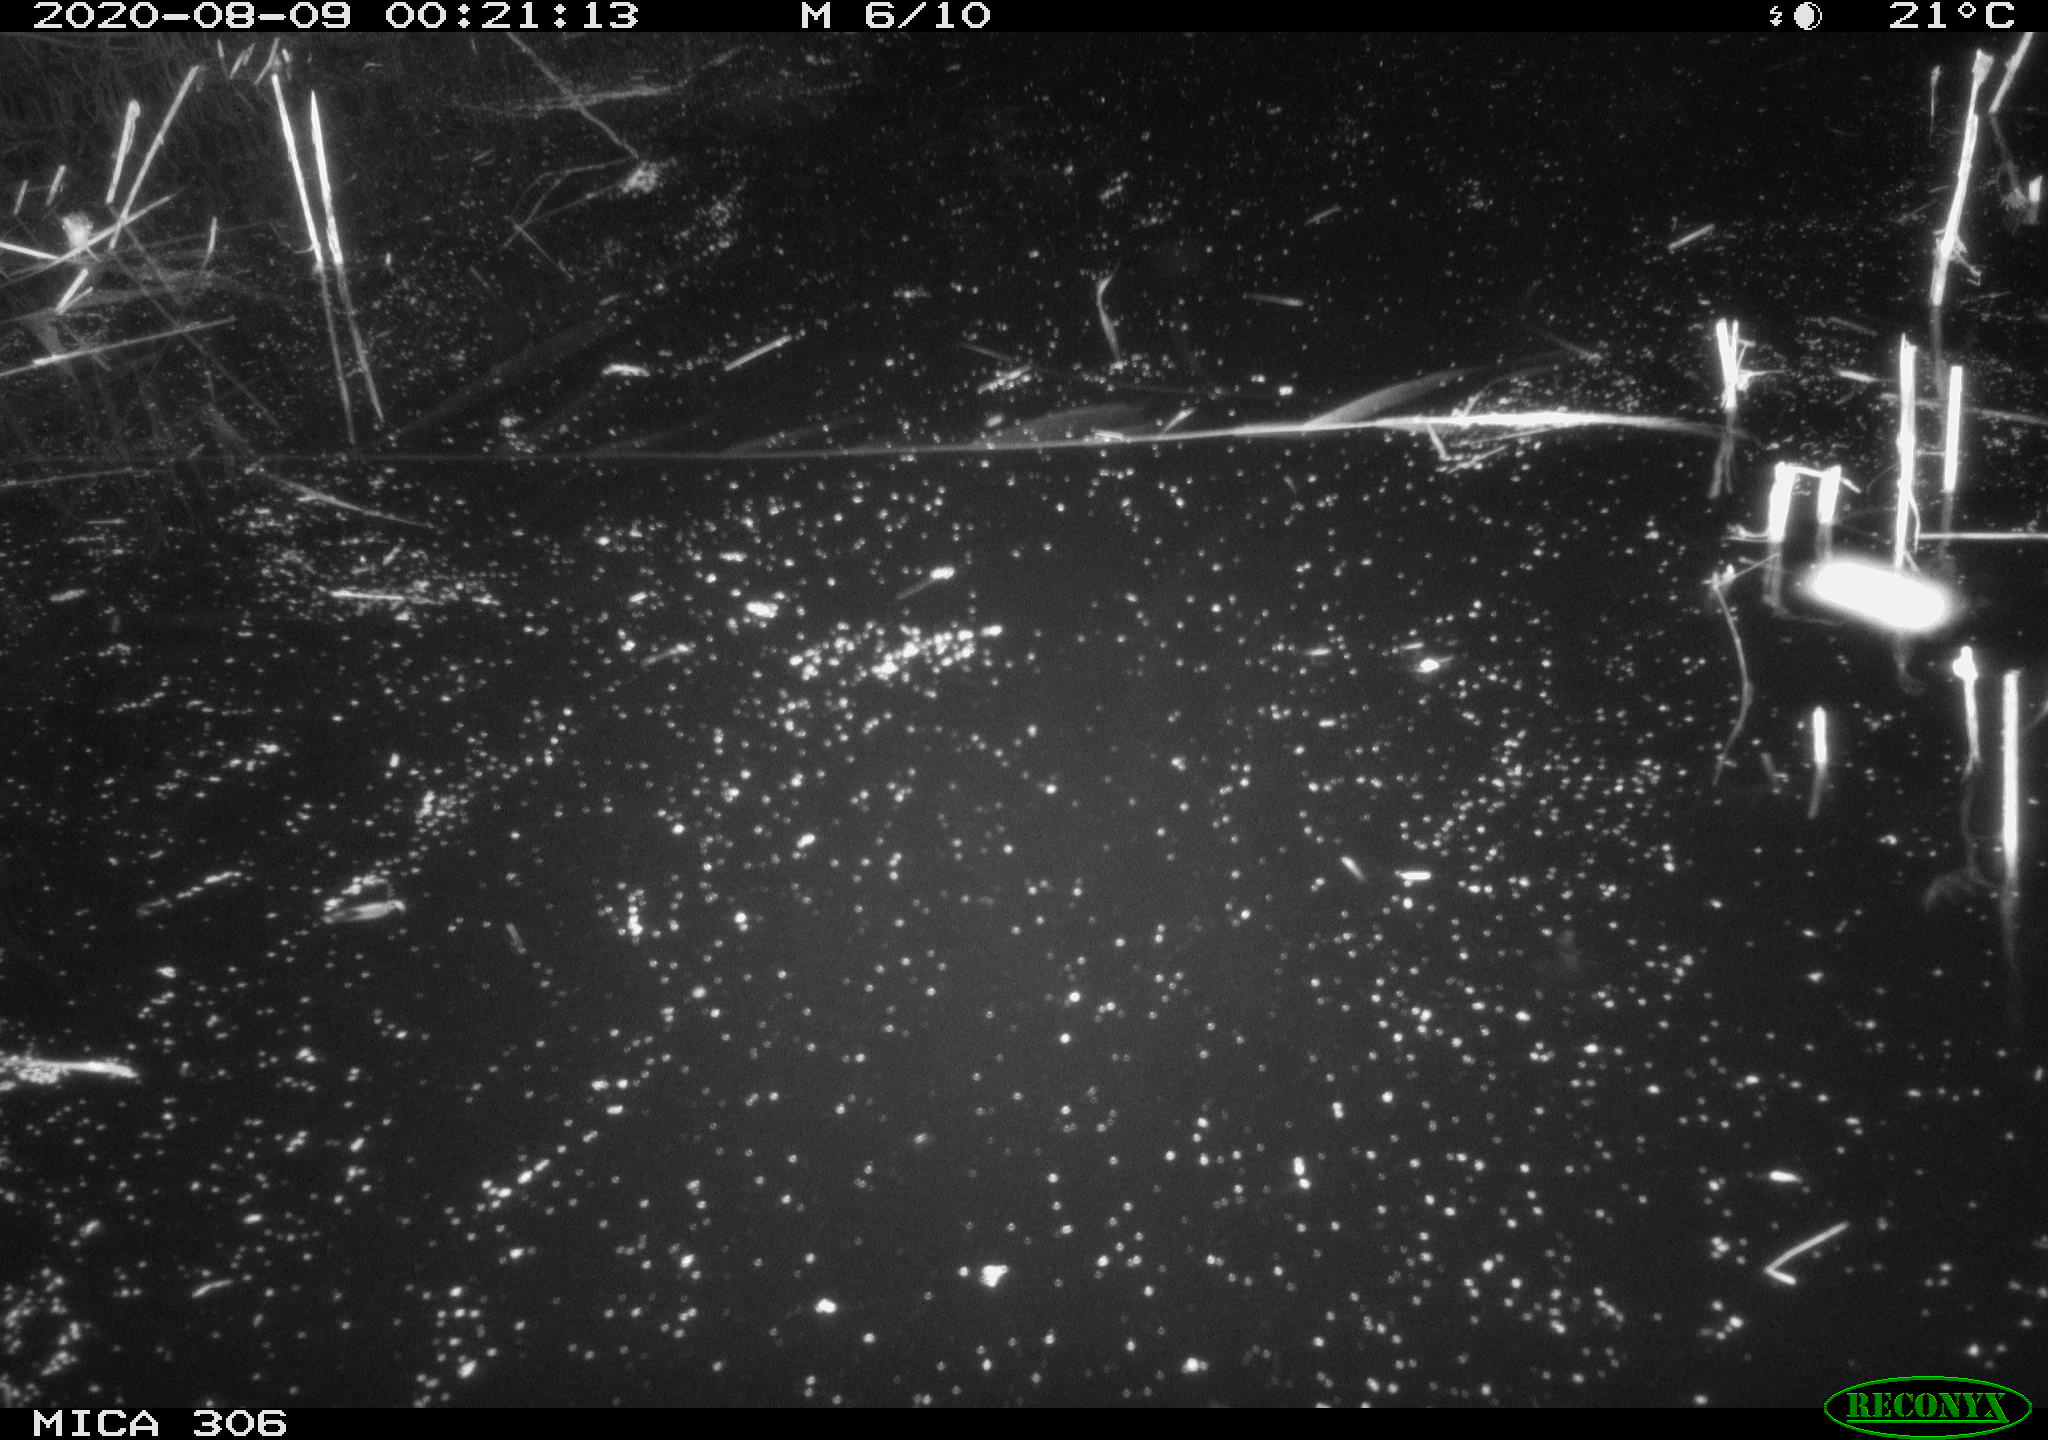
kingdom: Animalia
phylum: Chordata
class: Mammalia
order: Rodentia
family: Muridae
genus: Rattus
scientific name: Rattus norvegicus
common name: Brown rat
